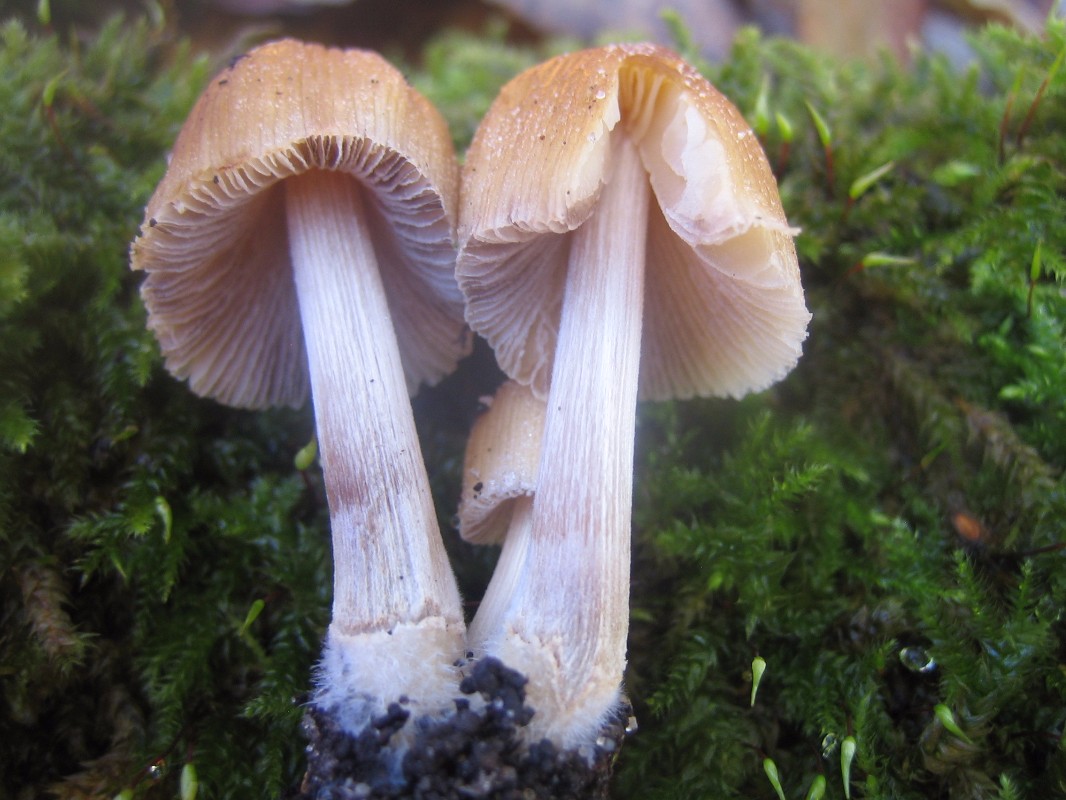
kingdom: Fungi
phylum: Basidiomycota
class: Agaricomycetes
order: Agaricales
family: Psathyrellaceae
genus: Coprinellus
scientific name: Coprinellus micaceus
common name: glimmer-blækhat
